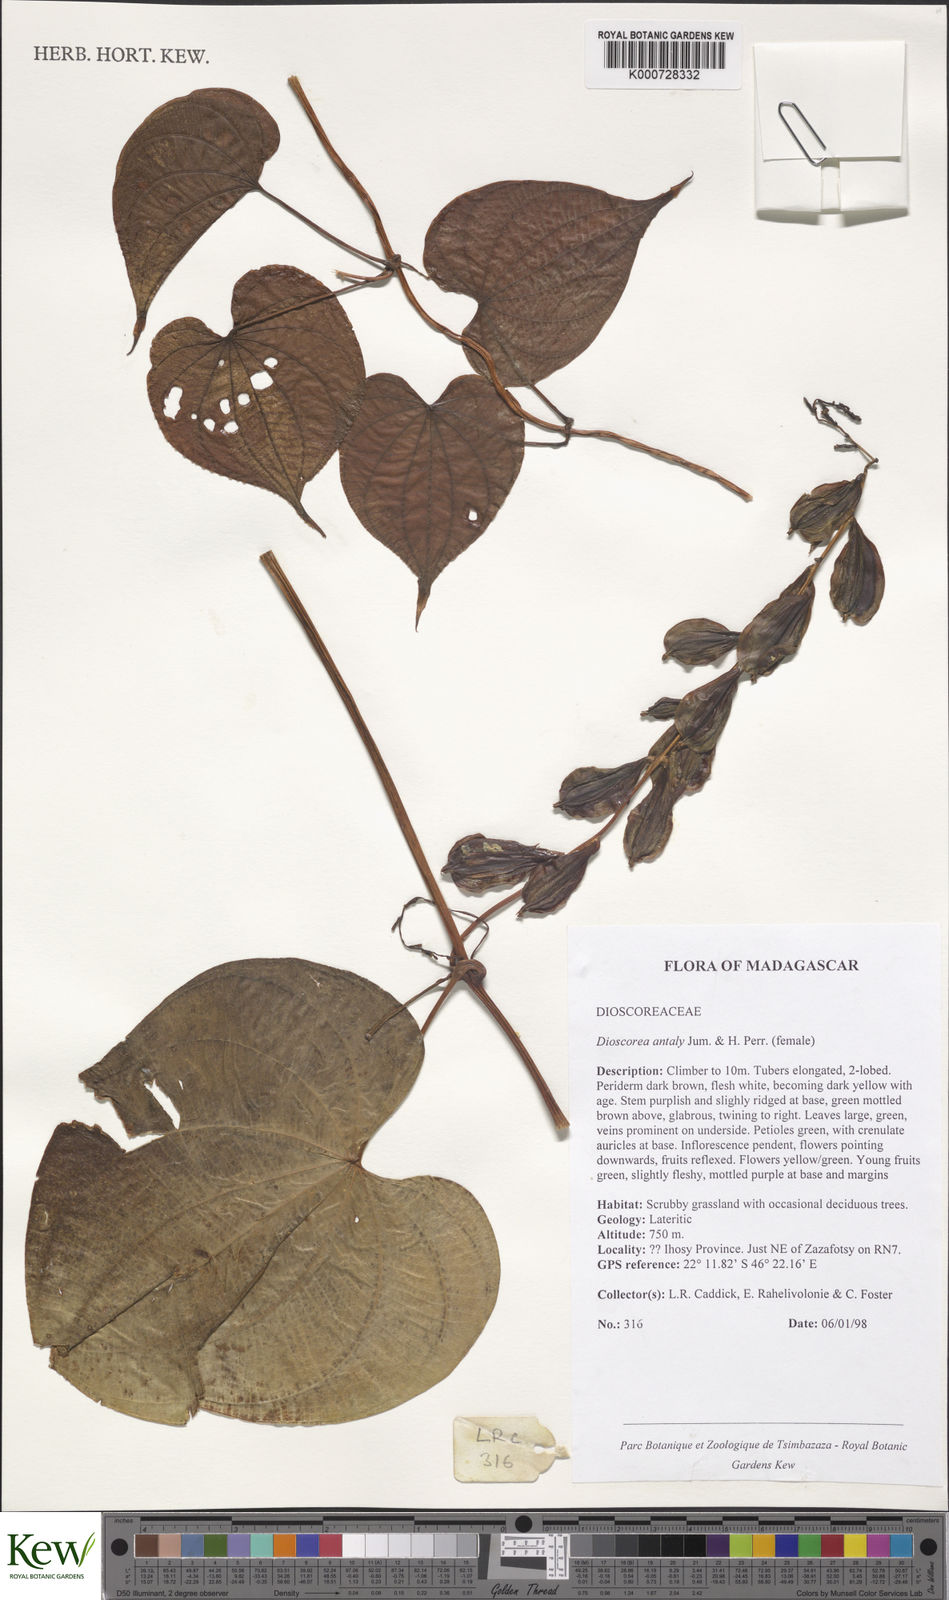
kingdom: Plantae
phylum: Tracheophyta
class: Liliopsida
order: Dioscoreales
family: Dioscoreaceae
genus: Dioscorea
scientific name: Dioscorea antaly
